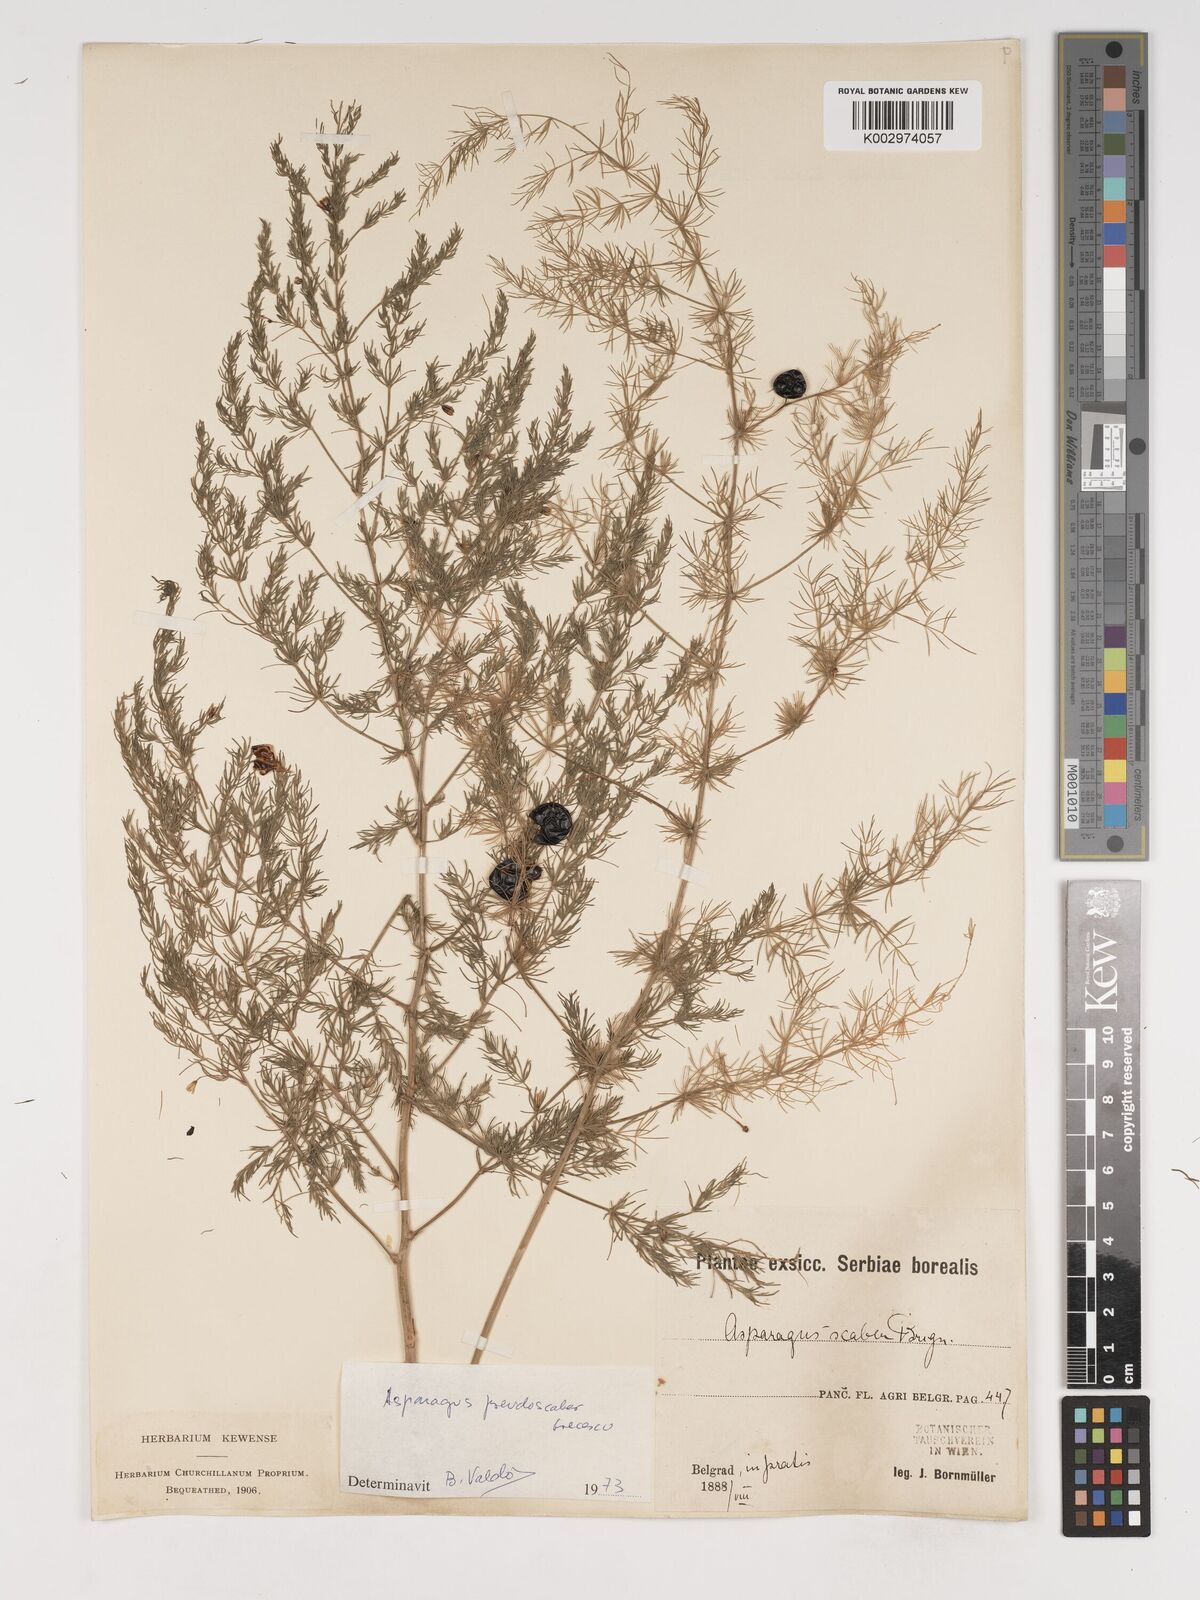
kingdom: Plantae
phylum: Tracheophyta
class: Liliopsida
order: Asparagales
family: Asparagaceae
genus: Asparagus
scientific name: Asparagus maritimus
